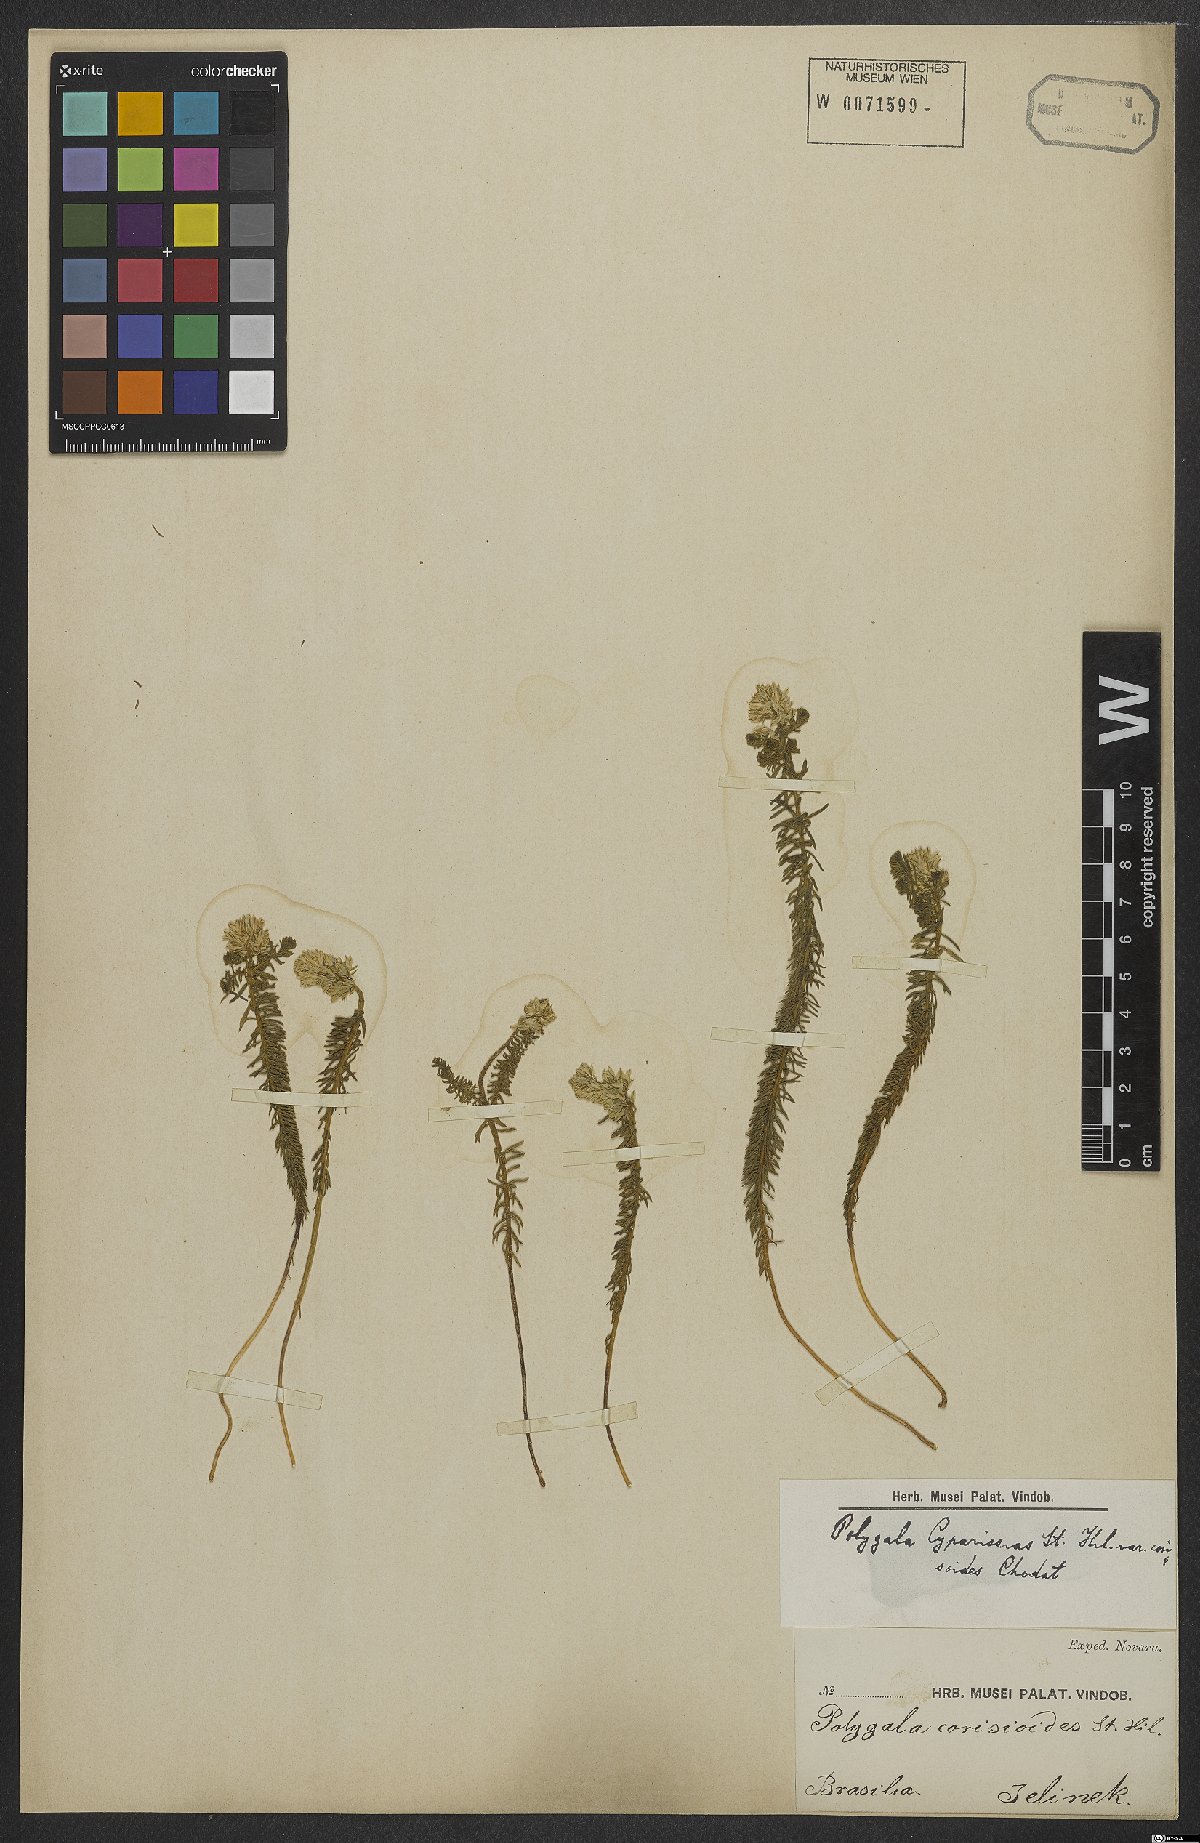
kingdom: Plantae
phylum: Tracheophyta
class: Magnoliopsida
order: Fabales
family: Polygalaceae
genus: Polygala
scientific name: Polygala cyparissias
